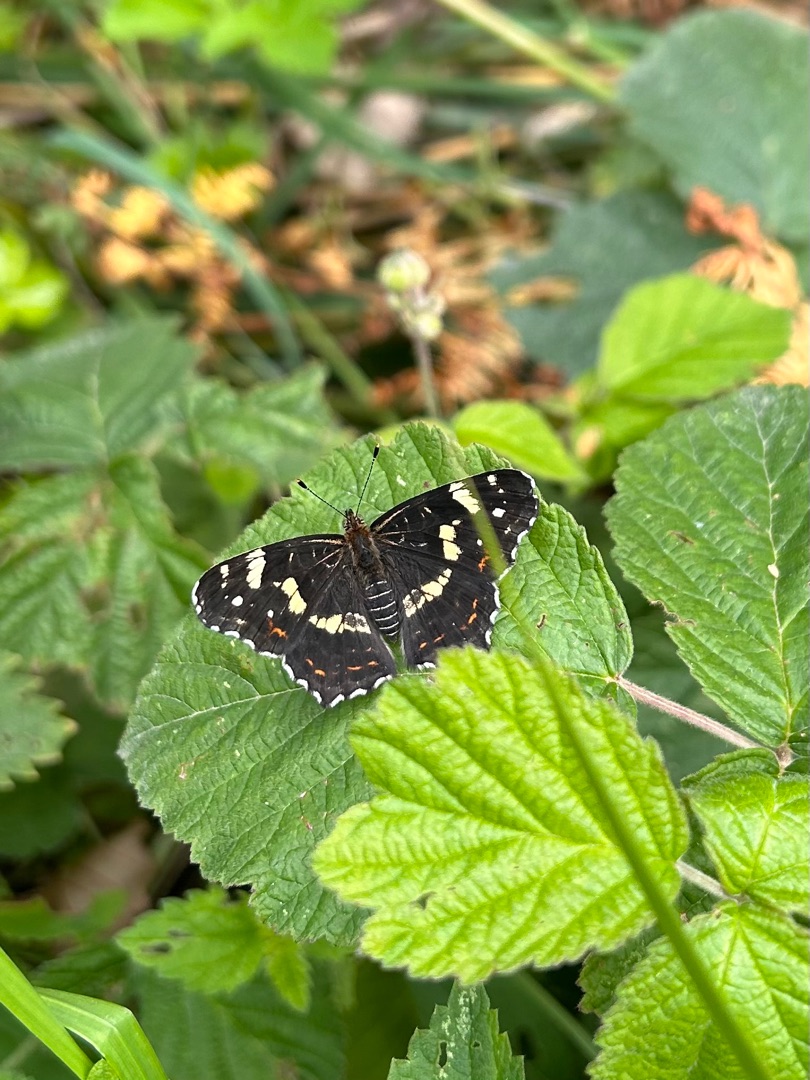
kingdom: Animalia
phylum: Arthropoda
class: Insecta
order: Lepidoptera
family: Nymphalidae
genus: Araschnia
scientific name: Araschnia levana
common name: Nældesommerfugl
